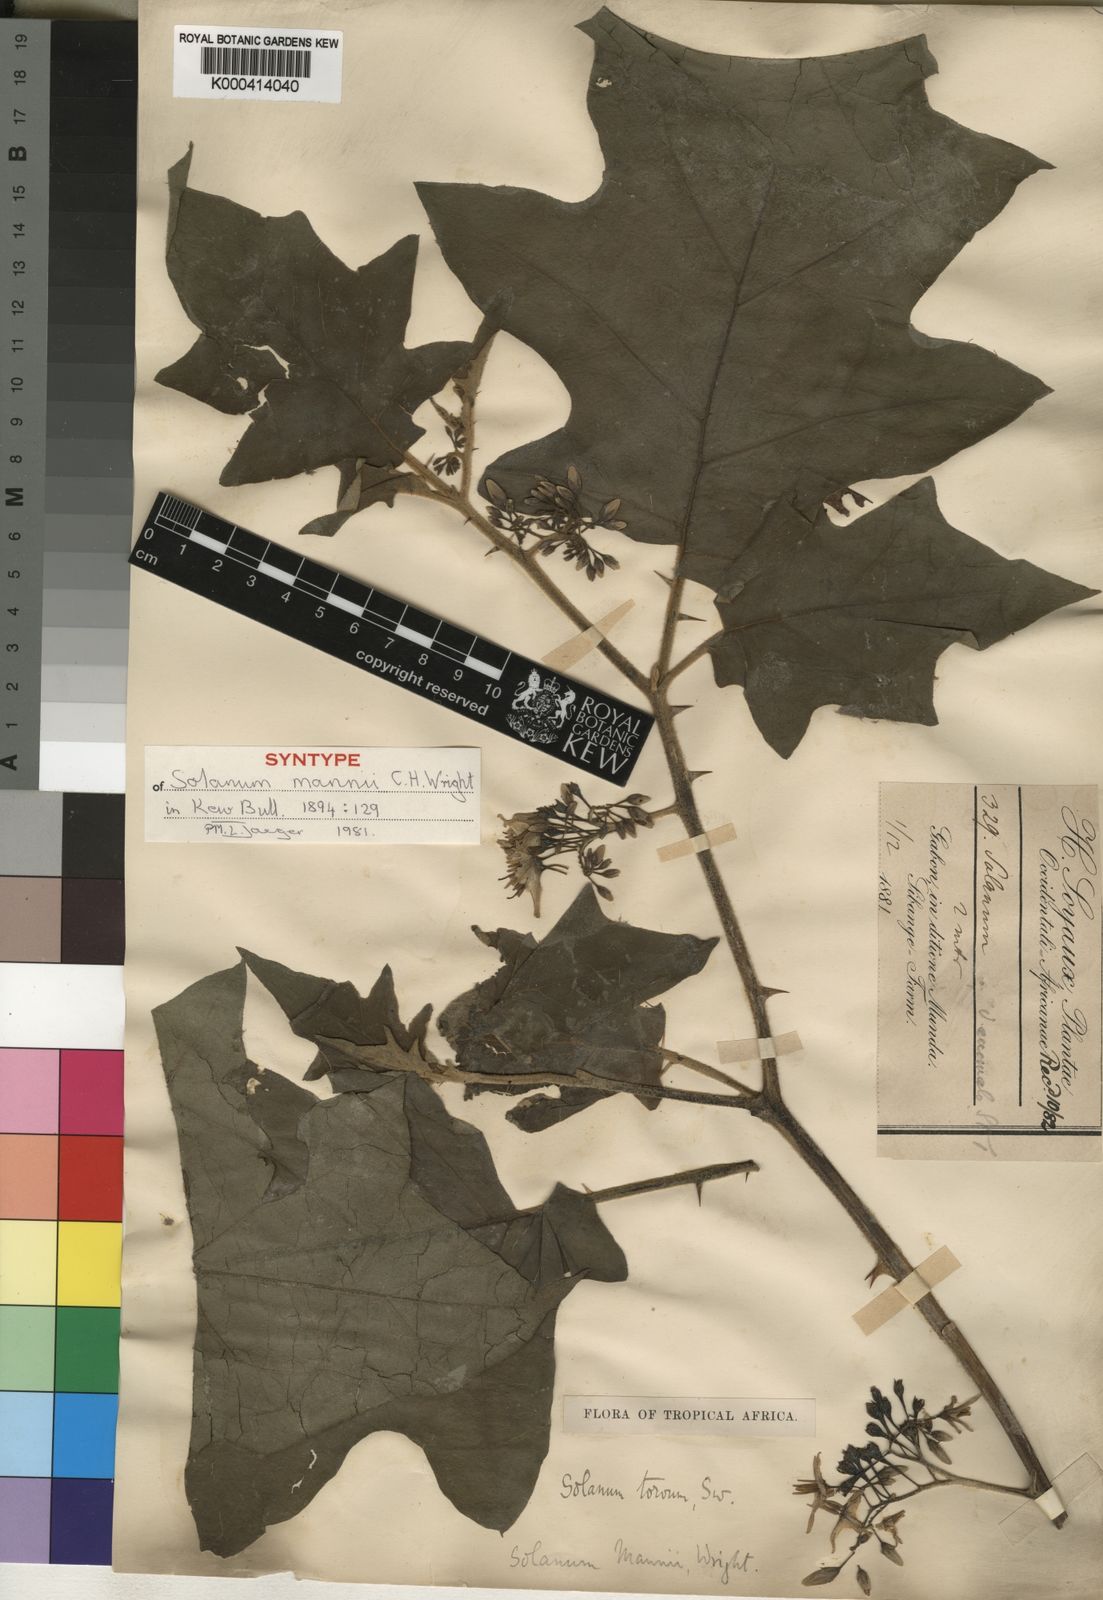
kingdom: Plantae
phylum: Tracheophyta
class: Magnoliopsida
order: Solanales
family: Solanaceae
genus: Solanum
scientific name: Solanum torvum
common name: Turkey berry
